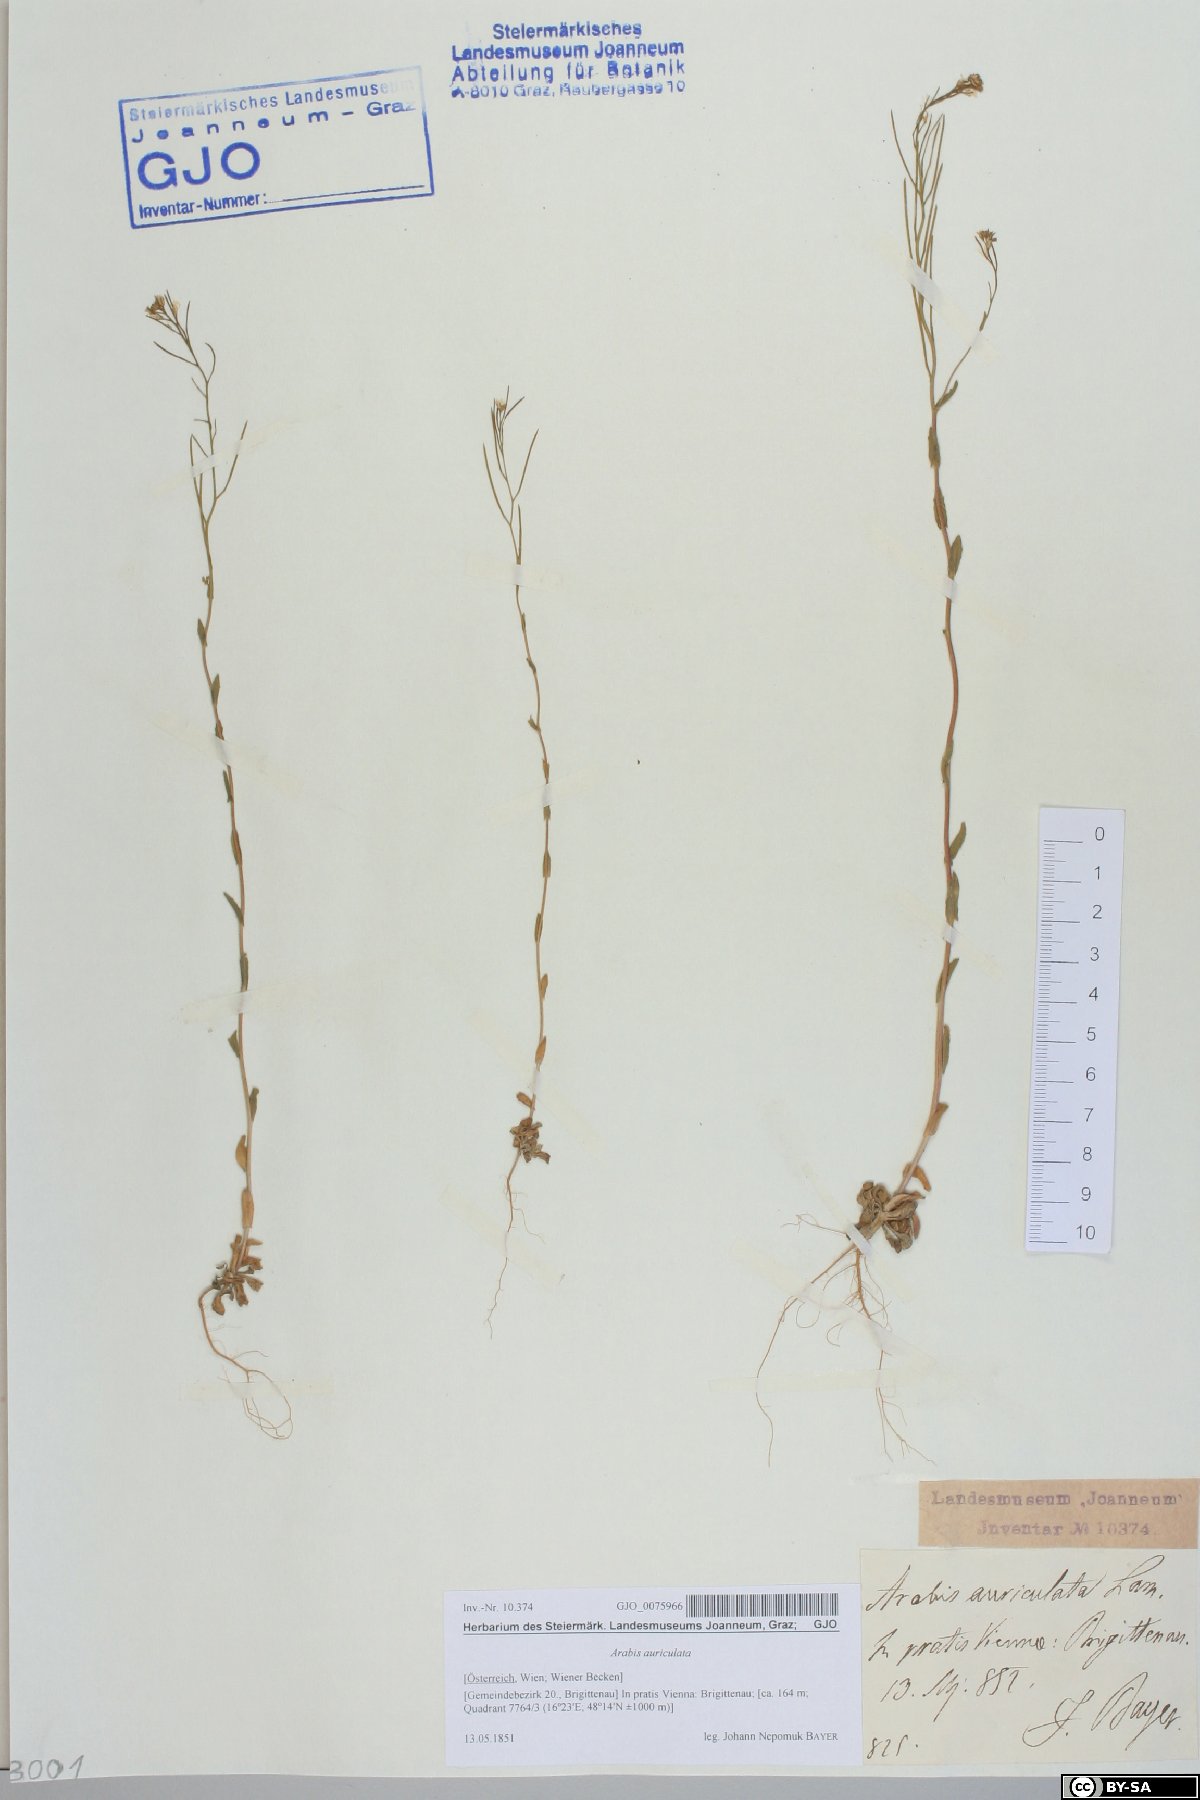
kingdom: Plantae
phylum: Tracheophyta
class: Magnoliopsida
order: Brassicales
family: Brassicaceae
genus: Arabis
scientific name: Arabis auriculata
